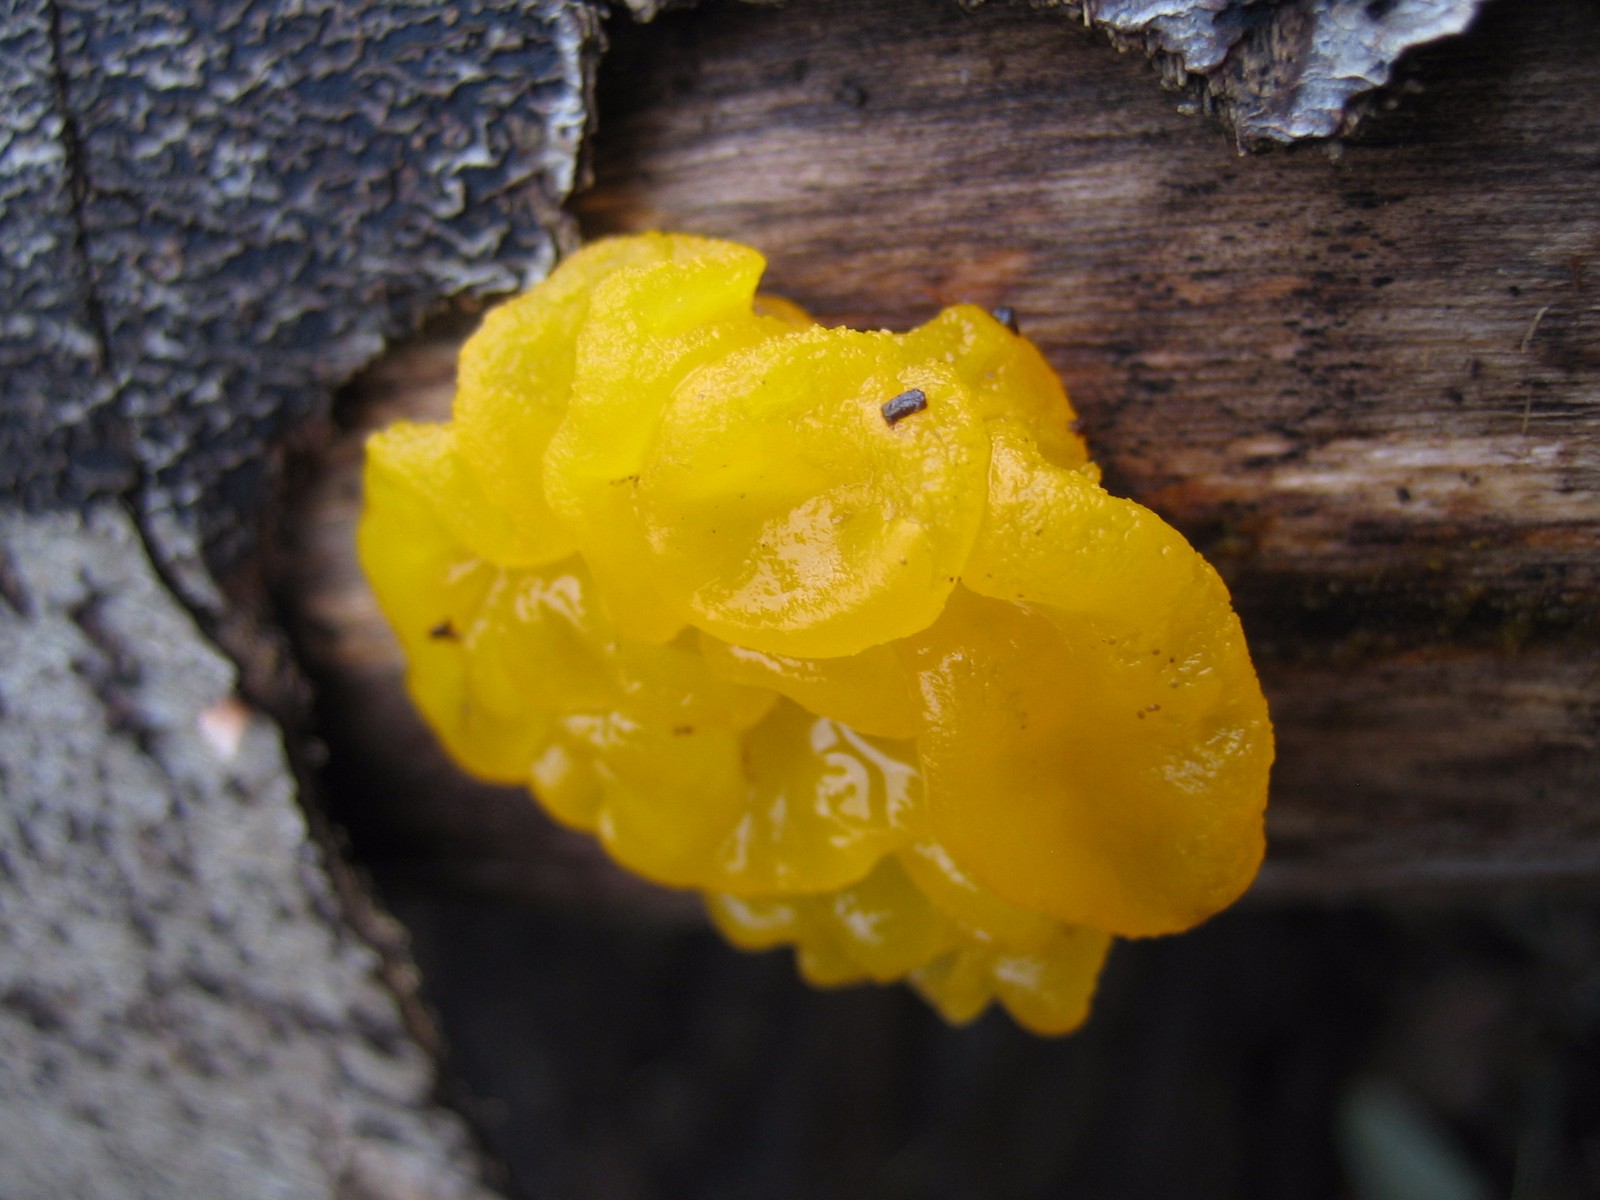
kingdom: Fungi
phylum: Basidiomycota
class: Tremellomycetes
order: Tremellales
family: Tremellaceae
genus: Tremella
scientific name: Tremella mesenterica
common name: gul bævresvamp
